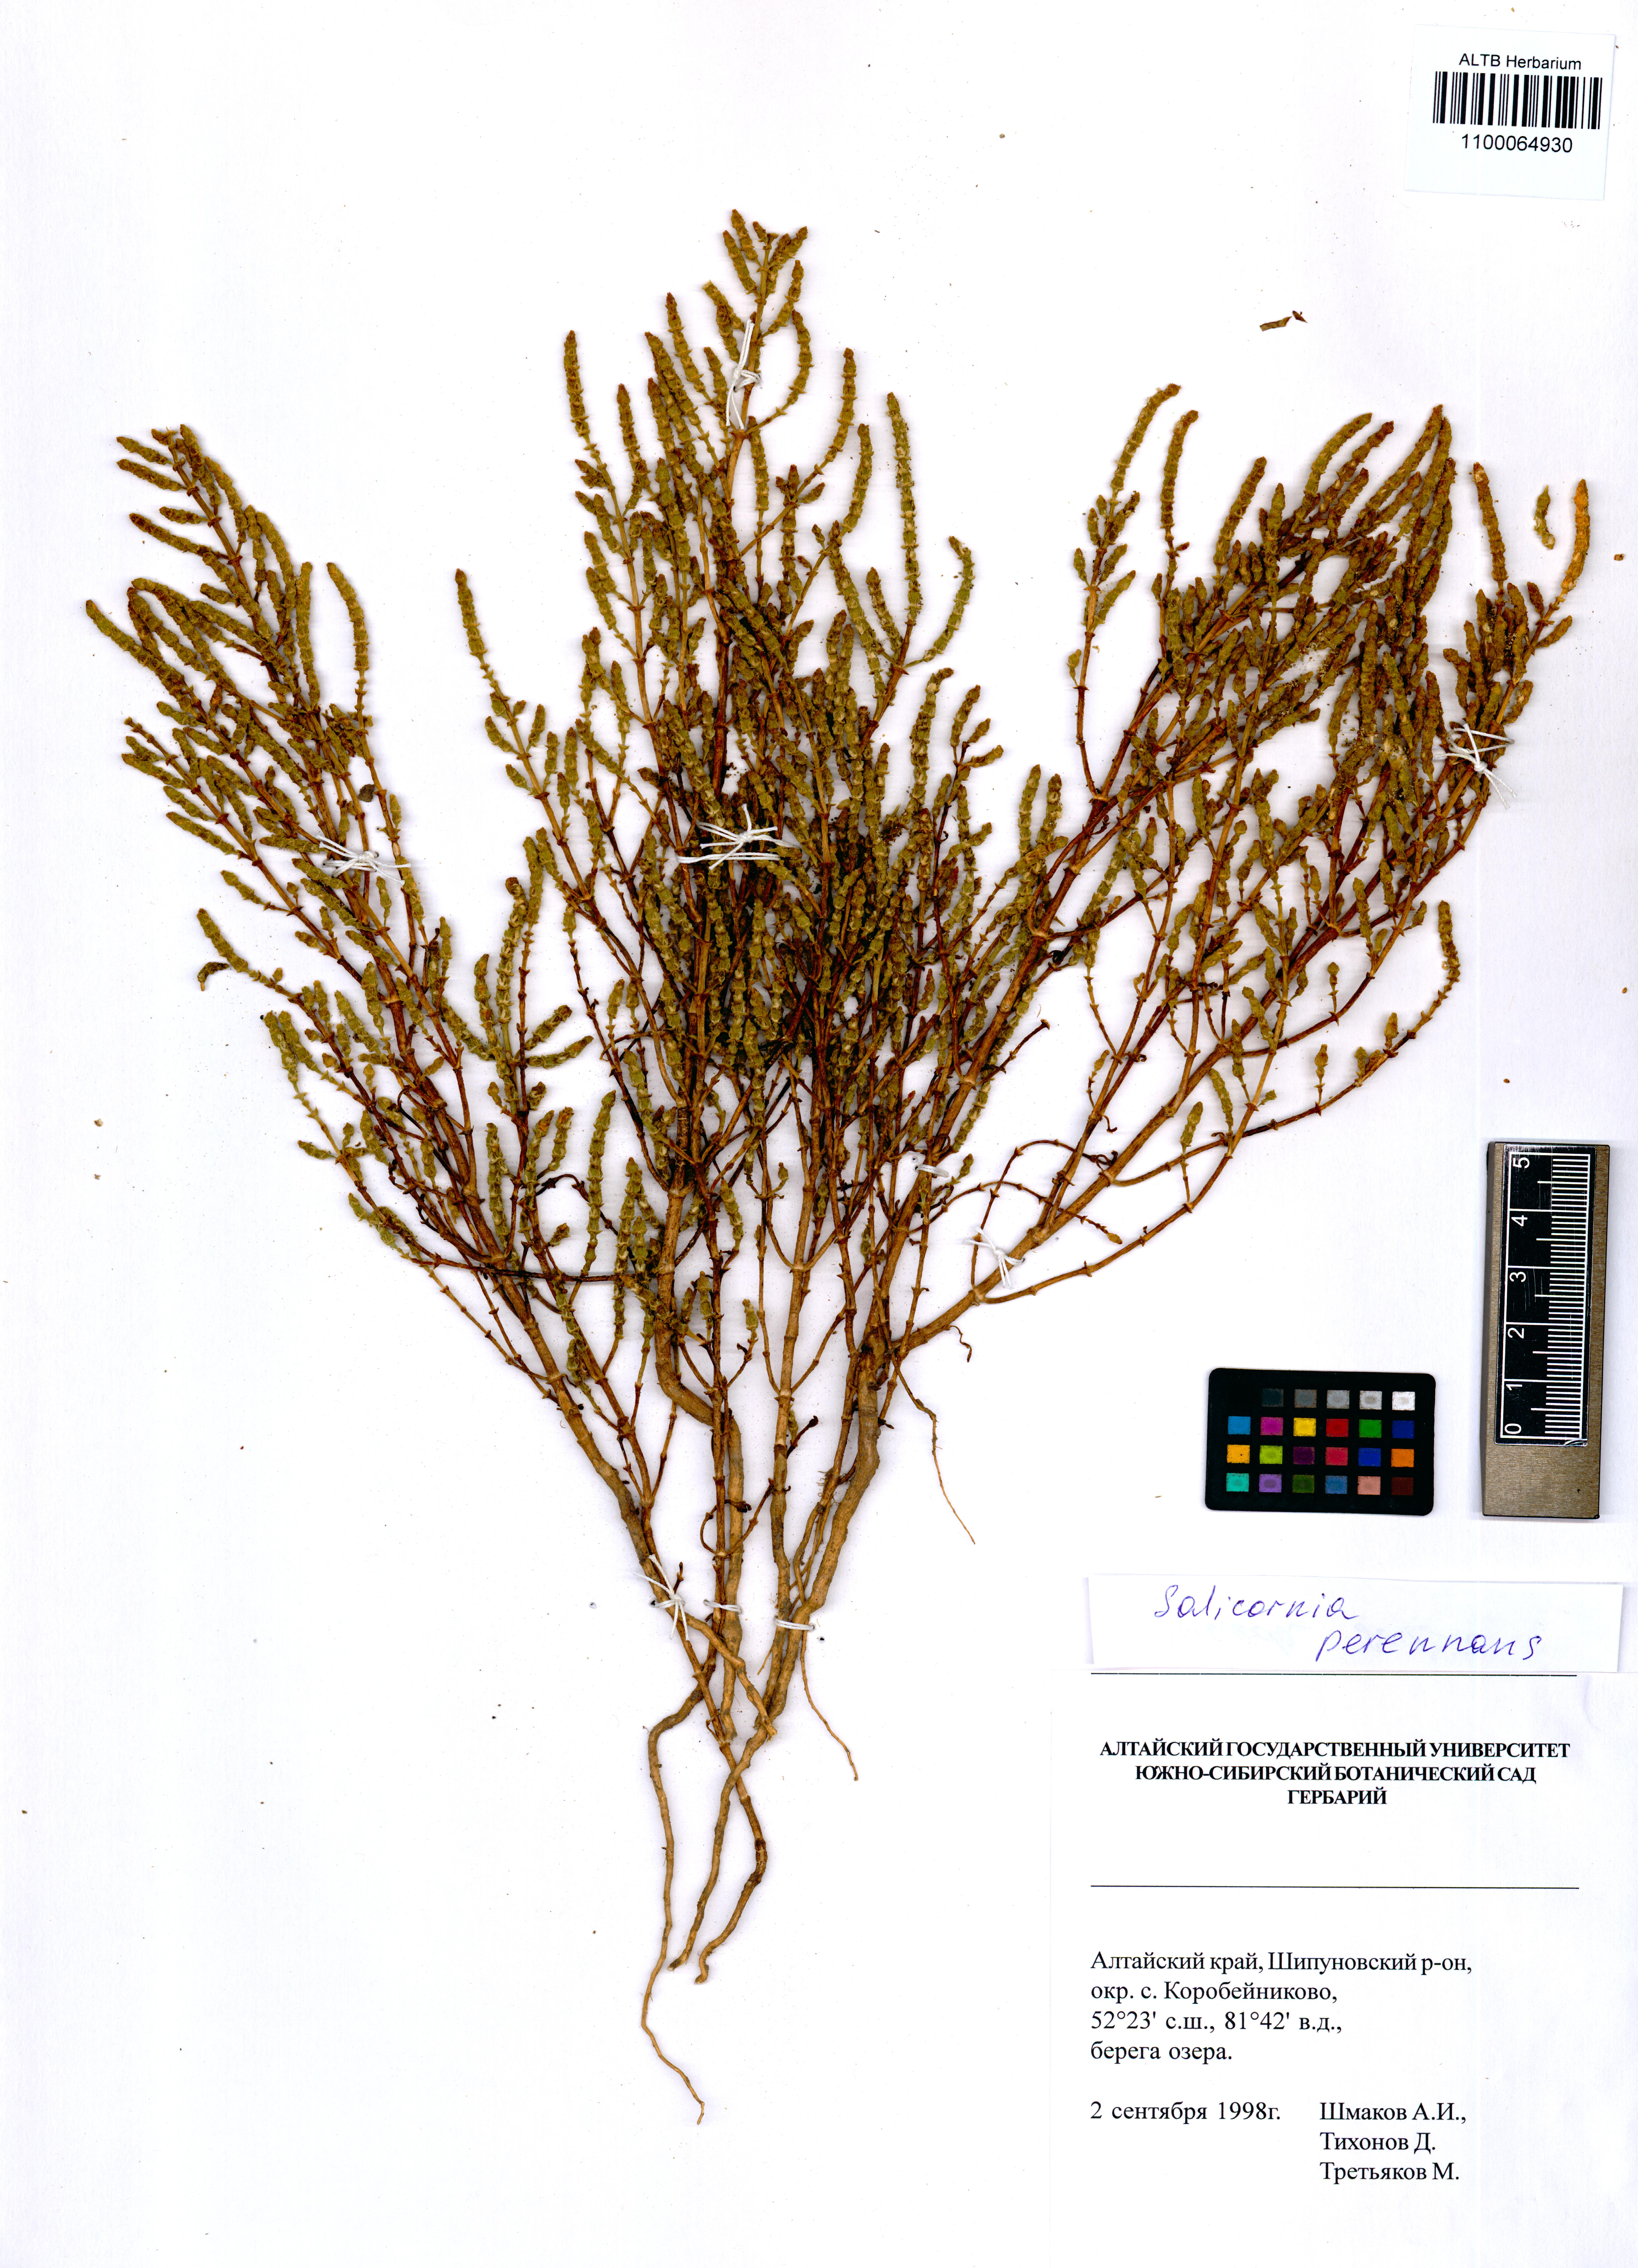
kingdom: Plantae
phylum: Tracheophyta
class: Magnoliopsida
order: Caryophyllales
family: Amaranthaceae
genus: Salicornia
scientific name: Salicornia perennans
